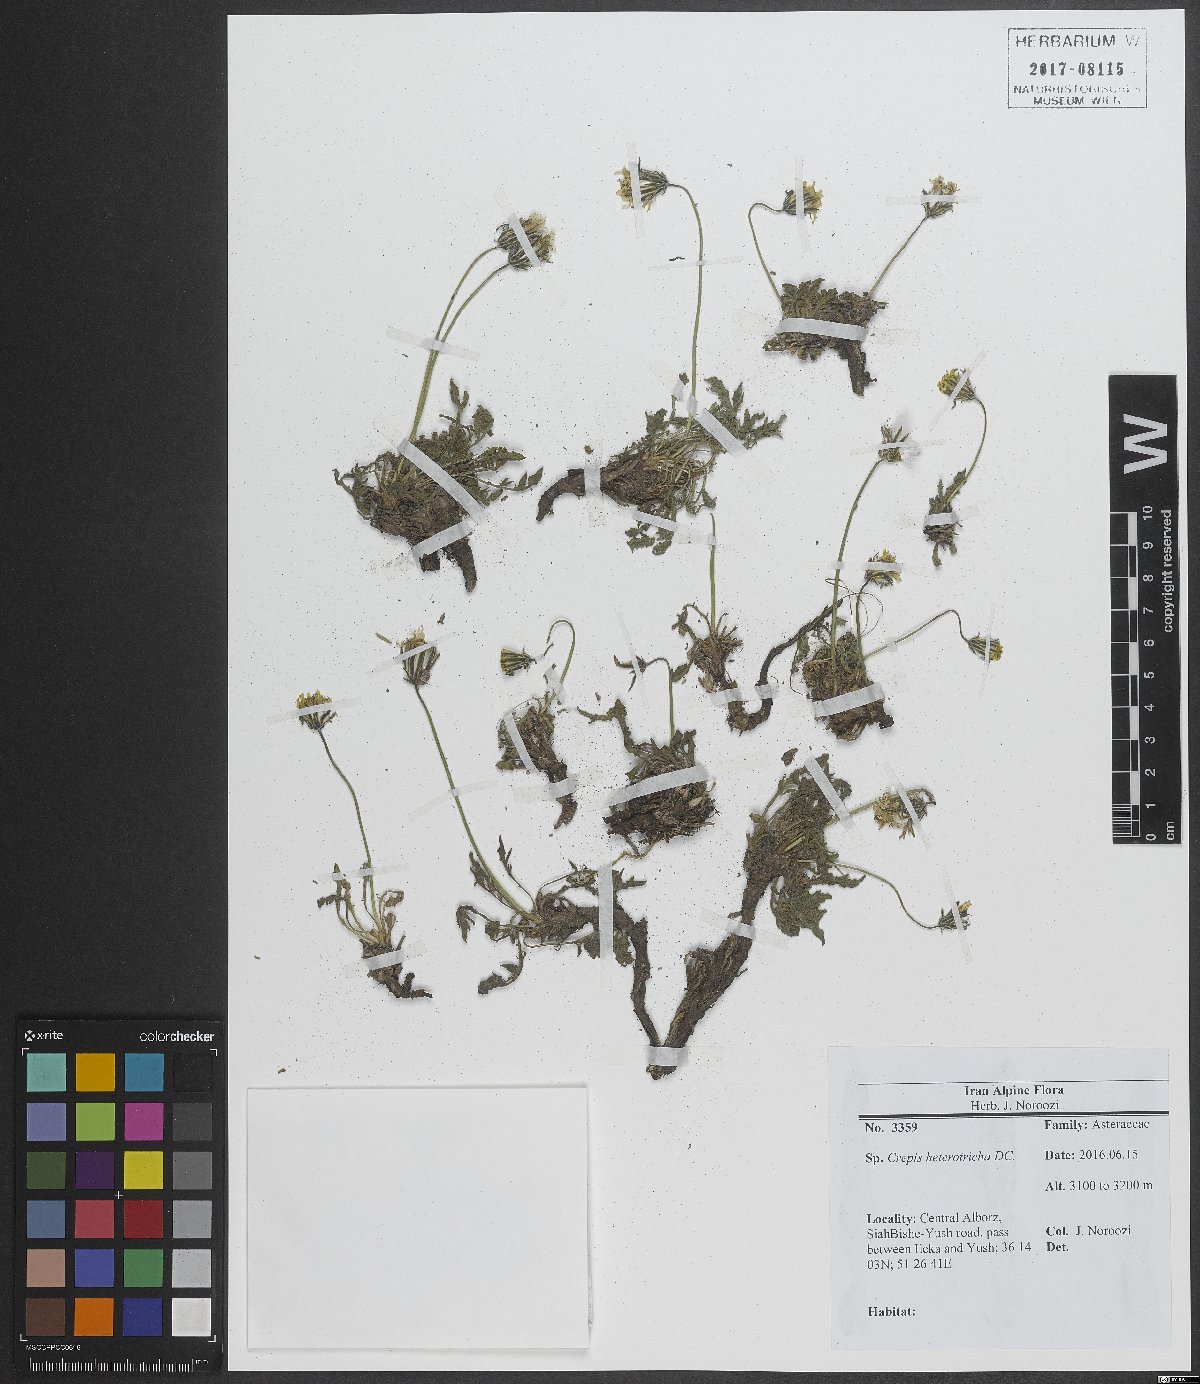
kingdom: Plantae
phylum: Tracheophyta
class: Magnoliopsida
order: Asterales
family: Asteraceae
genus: Crepis
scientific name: Crepis heterotricha
